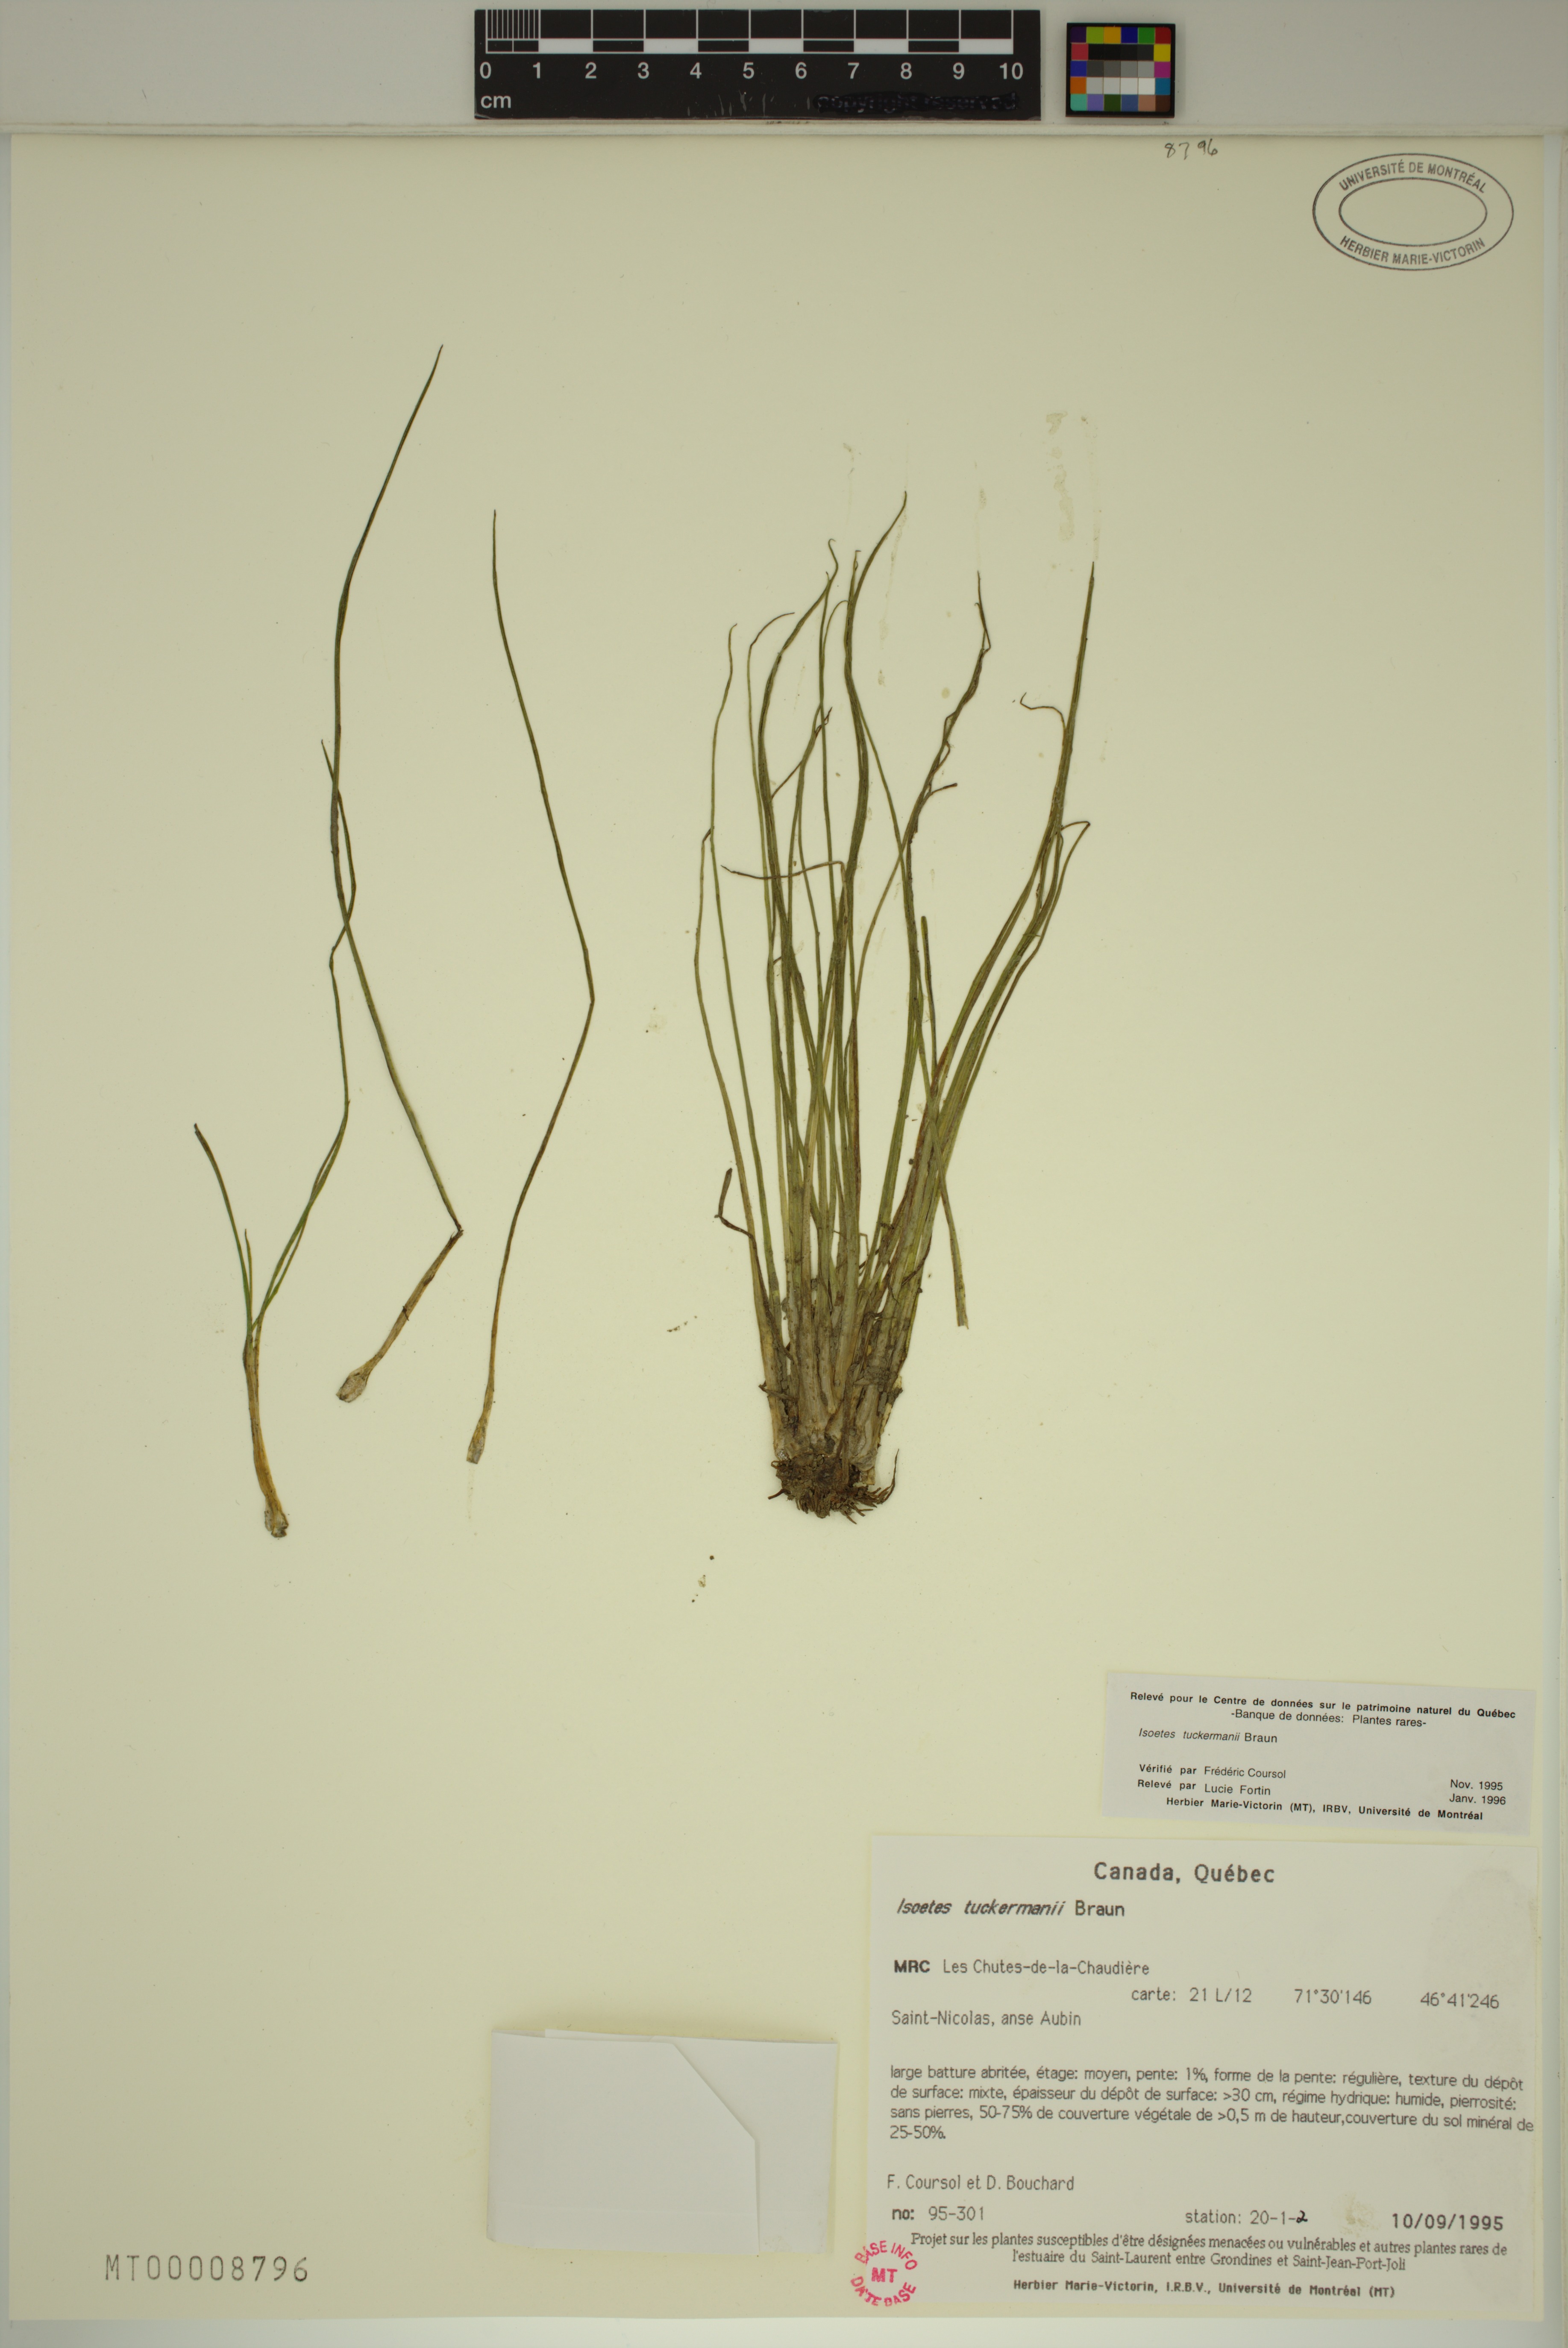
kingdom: Plantae
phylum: Tracheophyta
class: Lycopodiopsida
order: Isoetales
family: Isoetaceae
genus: Isoetes
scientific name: Isoetes laurentiana
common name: St. lawrence quillwort
